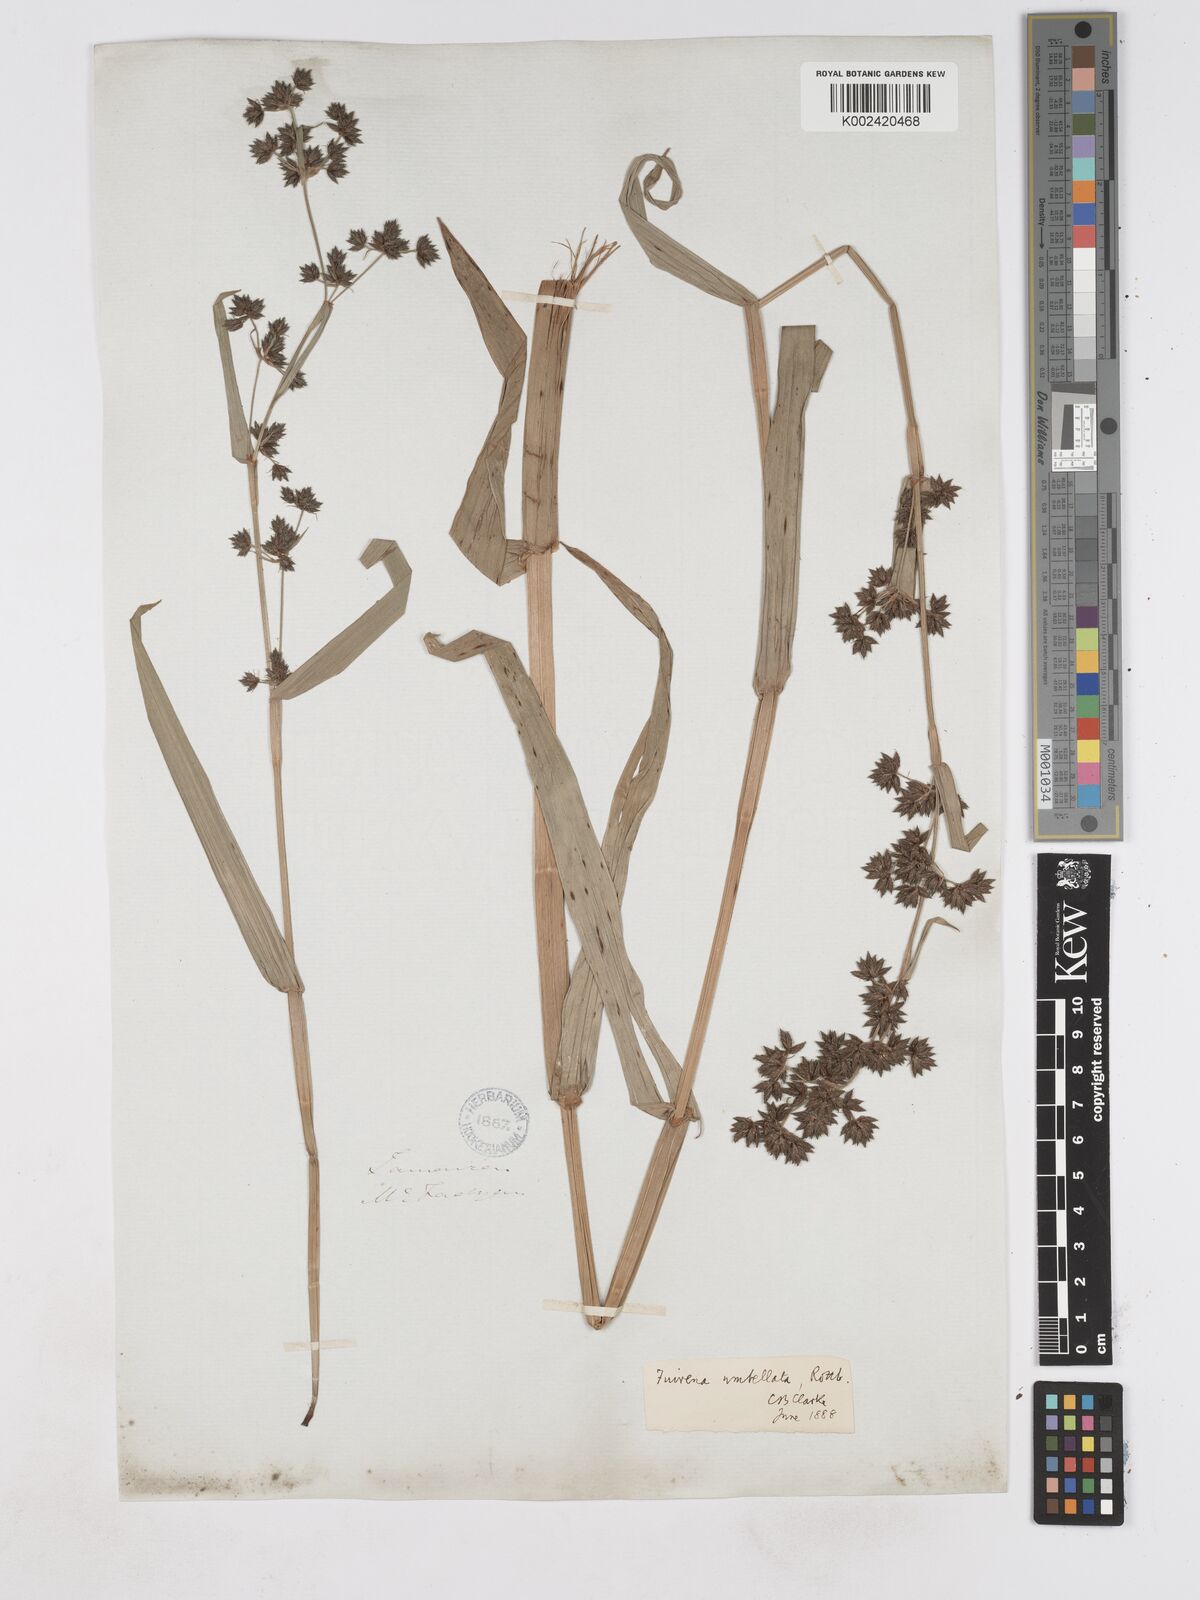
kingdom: Plantae
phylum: Tracheophyta
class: Liliopsida
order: Poales
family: Cyperaceae
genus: Fuirena
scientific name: Fuirena umbellata
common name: Yefen
